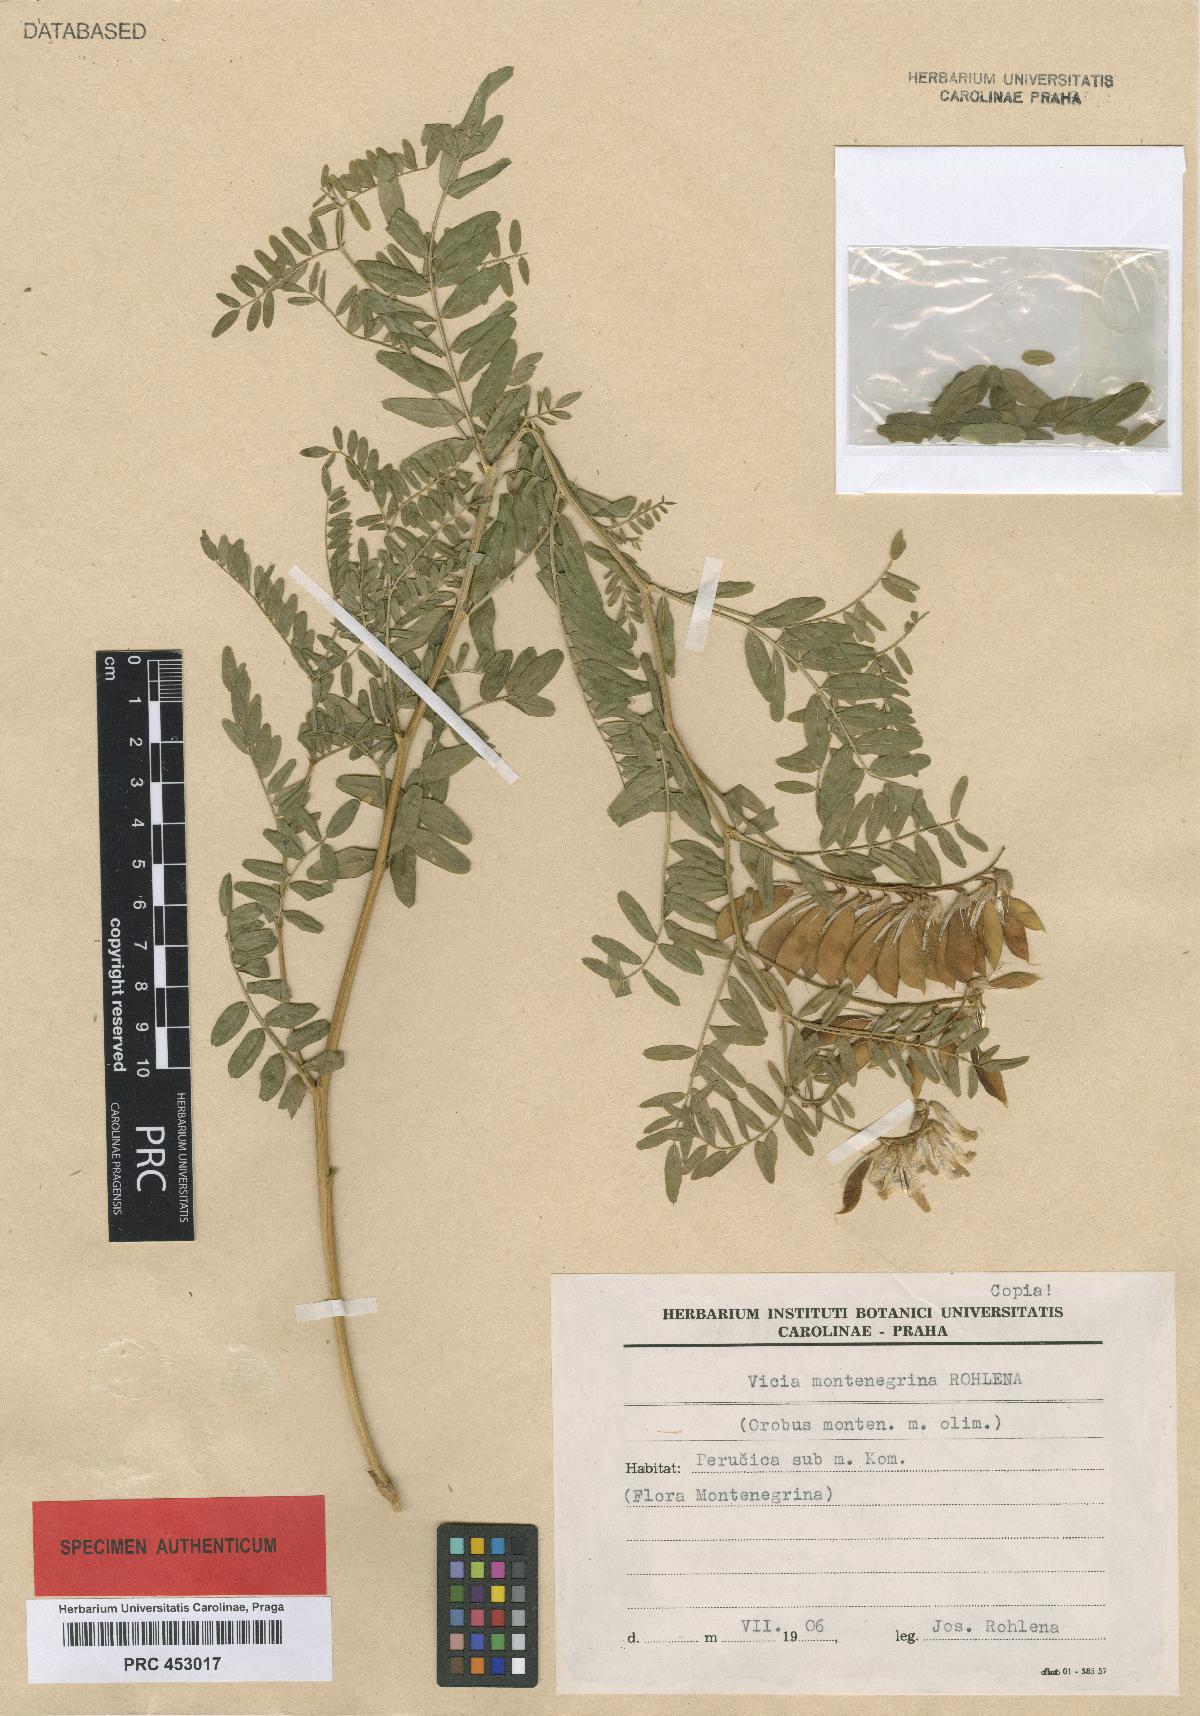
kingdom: Plantae
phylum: Tracheophyta
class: Magnoliopsida
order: Fabales
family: Fabaceae
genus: Vicia
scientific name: Vicia montenegrina
